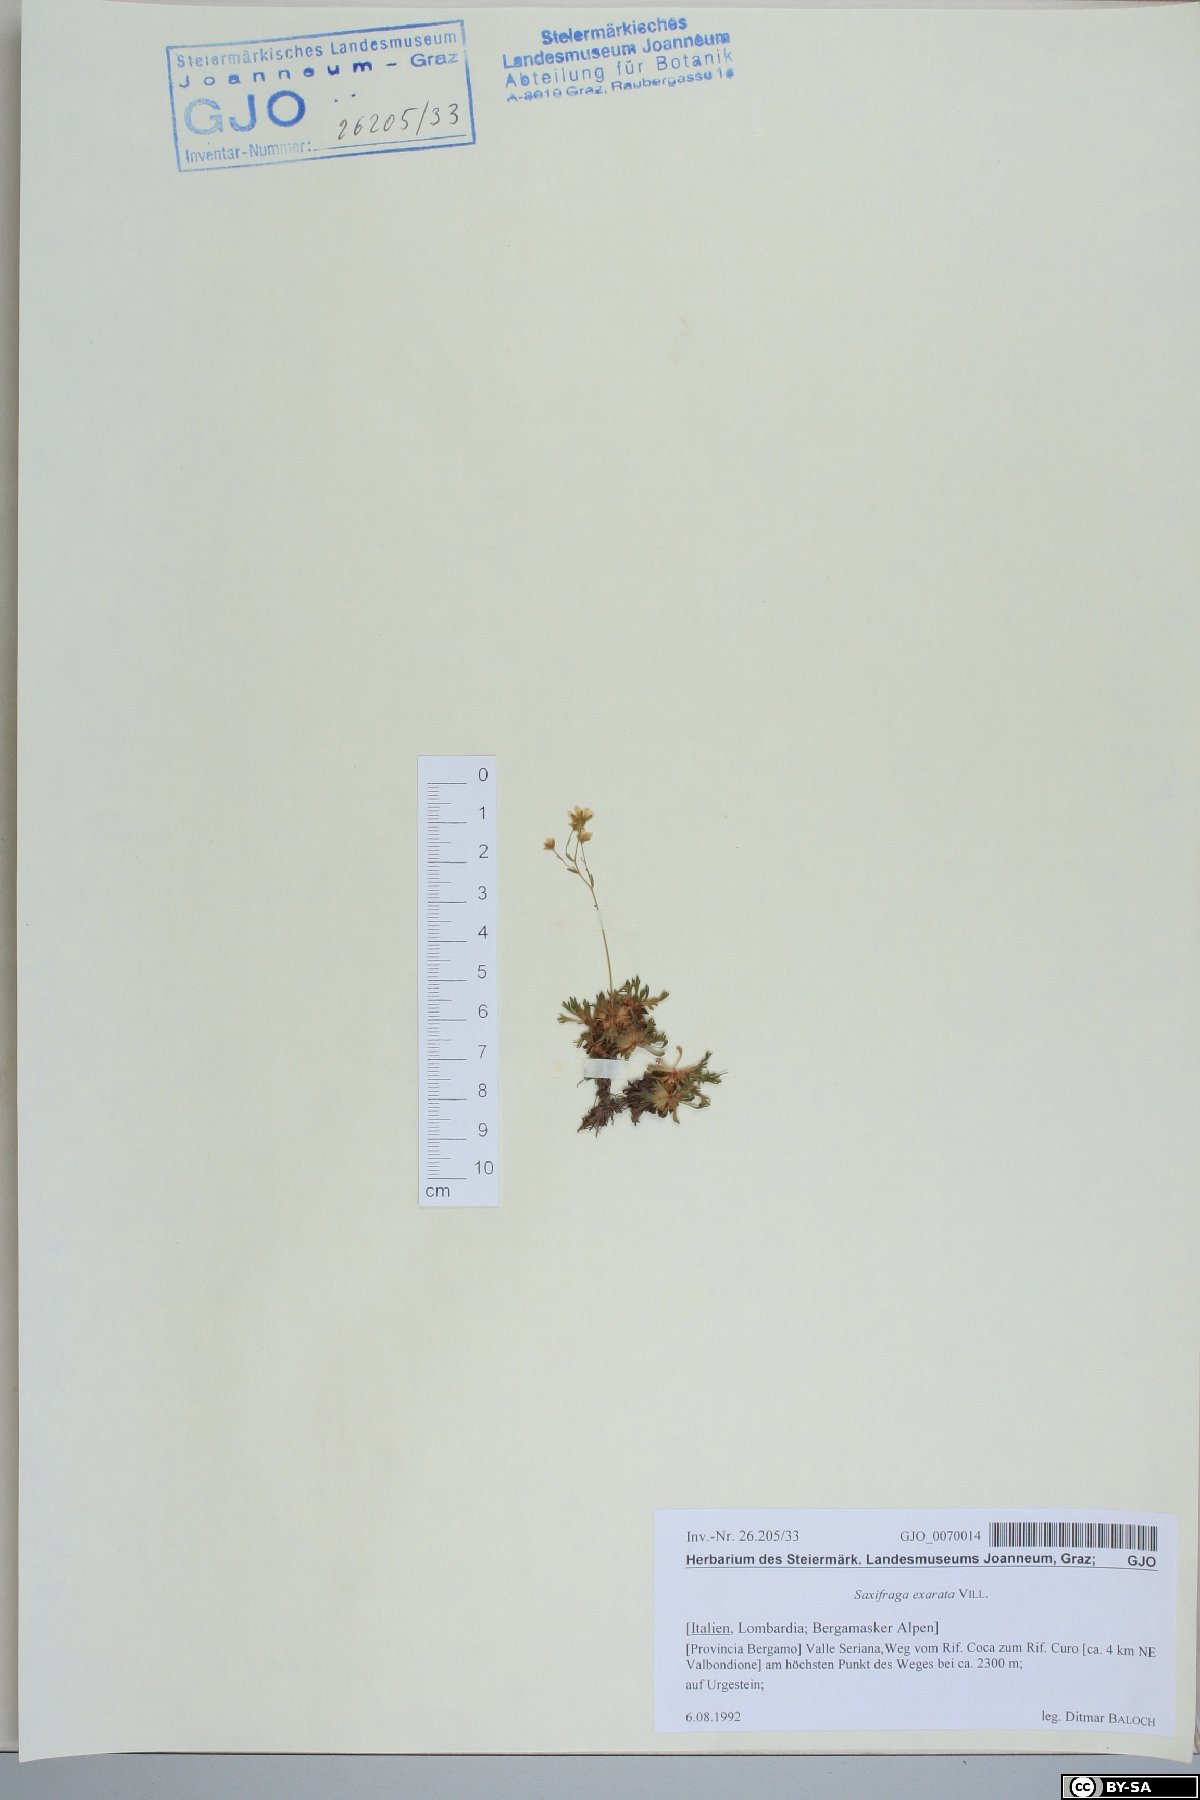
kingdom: Plantae
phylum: Tracheophyta
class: Magnoliopsida
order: Saxifragales
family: Saxifragaceae
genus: Saxifraga
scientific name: Saxifraga exarata
